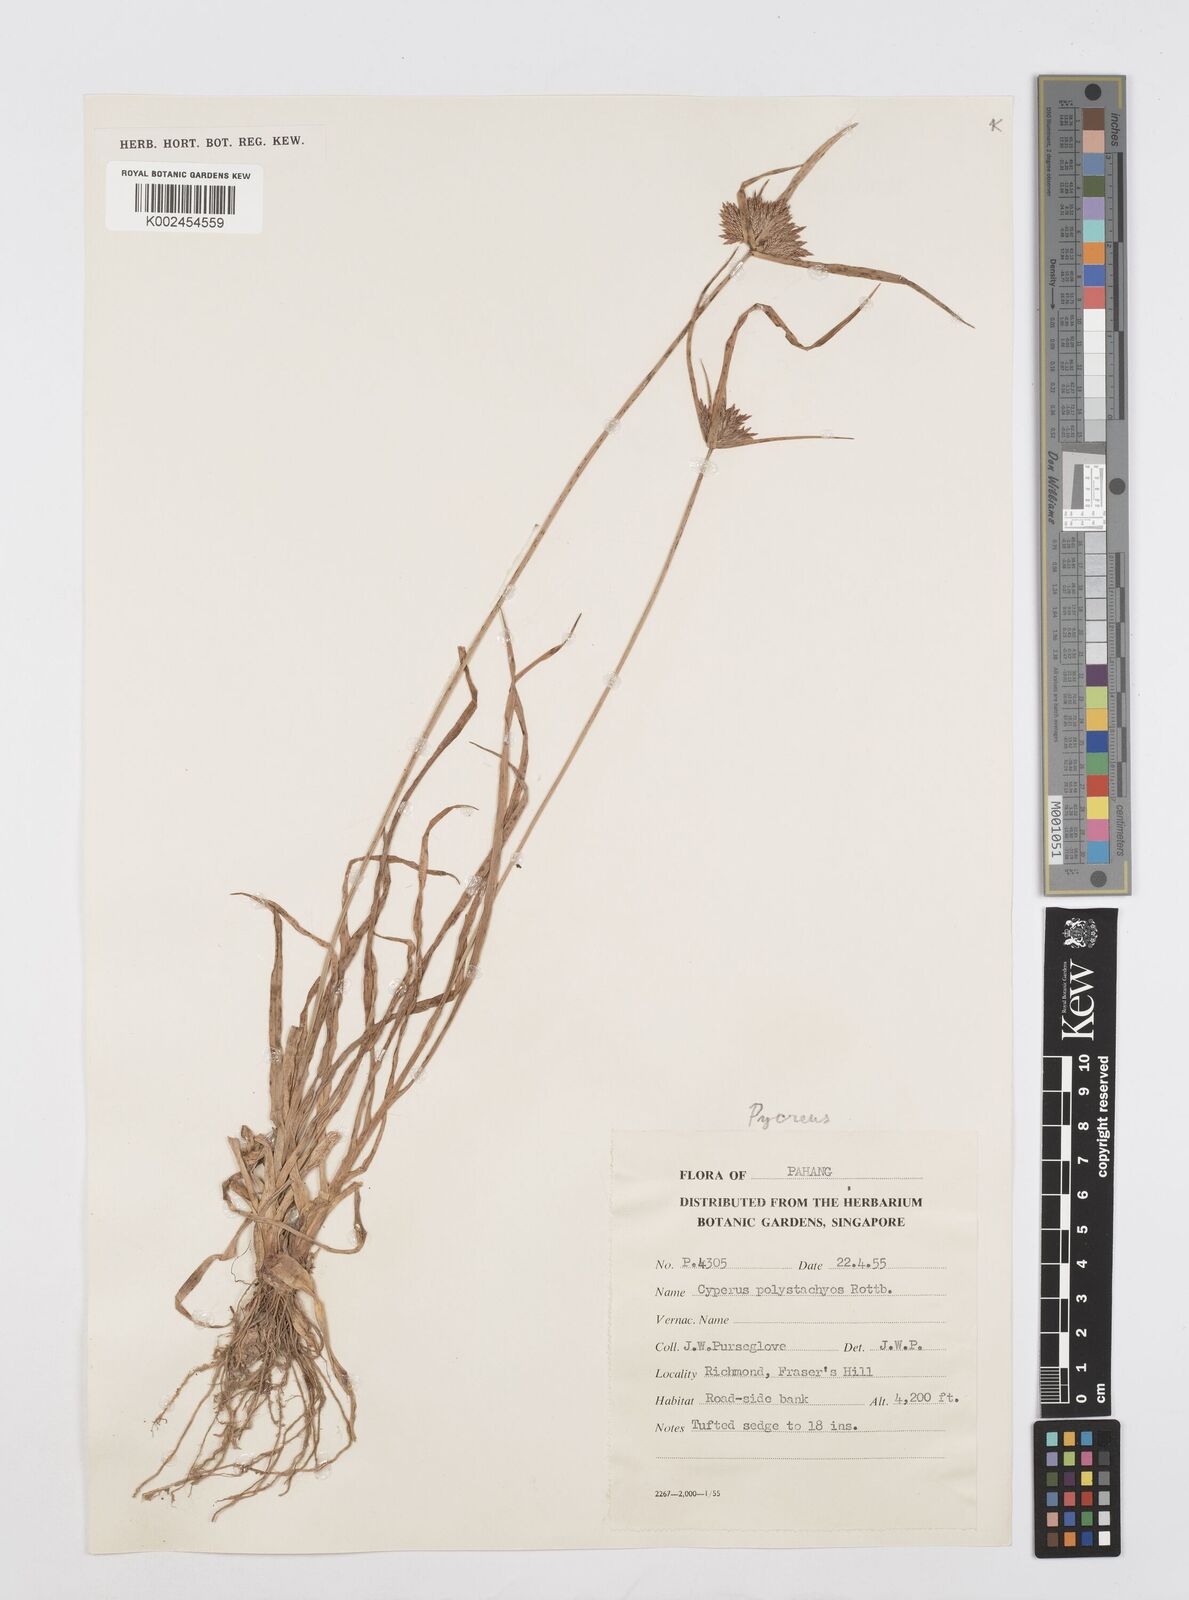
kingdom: Plantae
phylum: Tracheophyta
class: Liliopsida
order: Poales
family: Cyperaceae
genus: Cyperus
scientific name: Cyperus polystachyos
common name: Bunchy flat sedge
